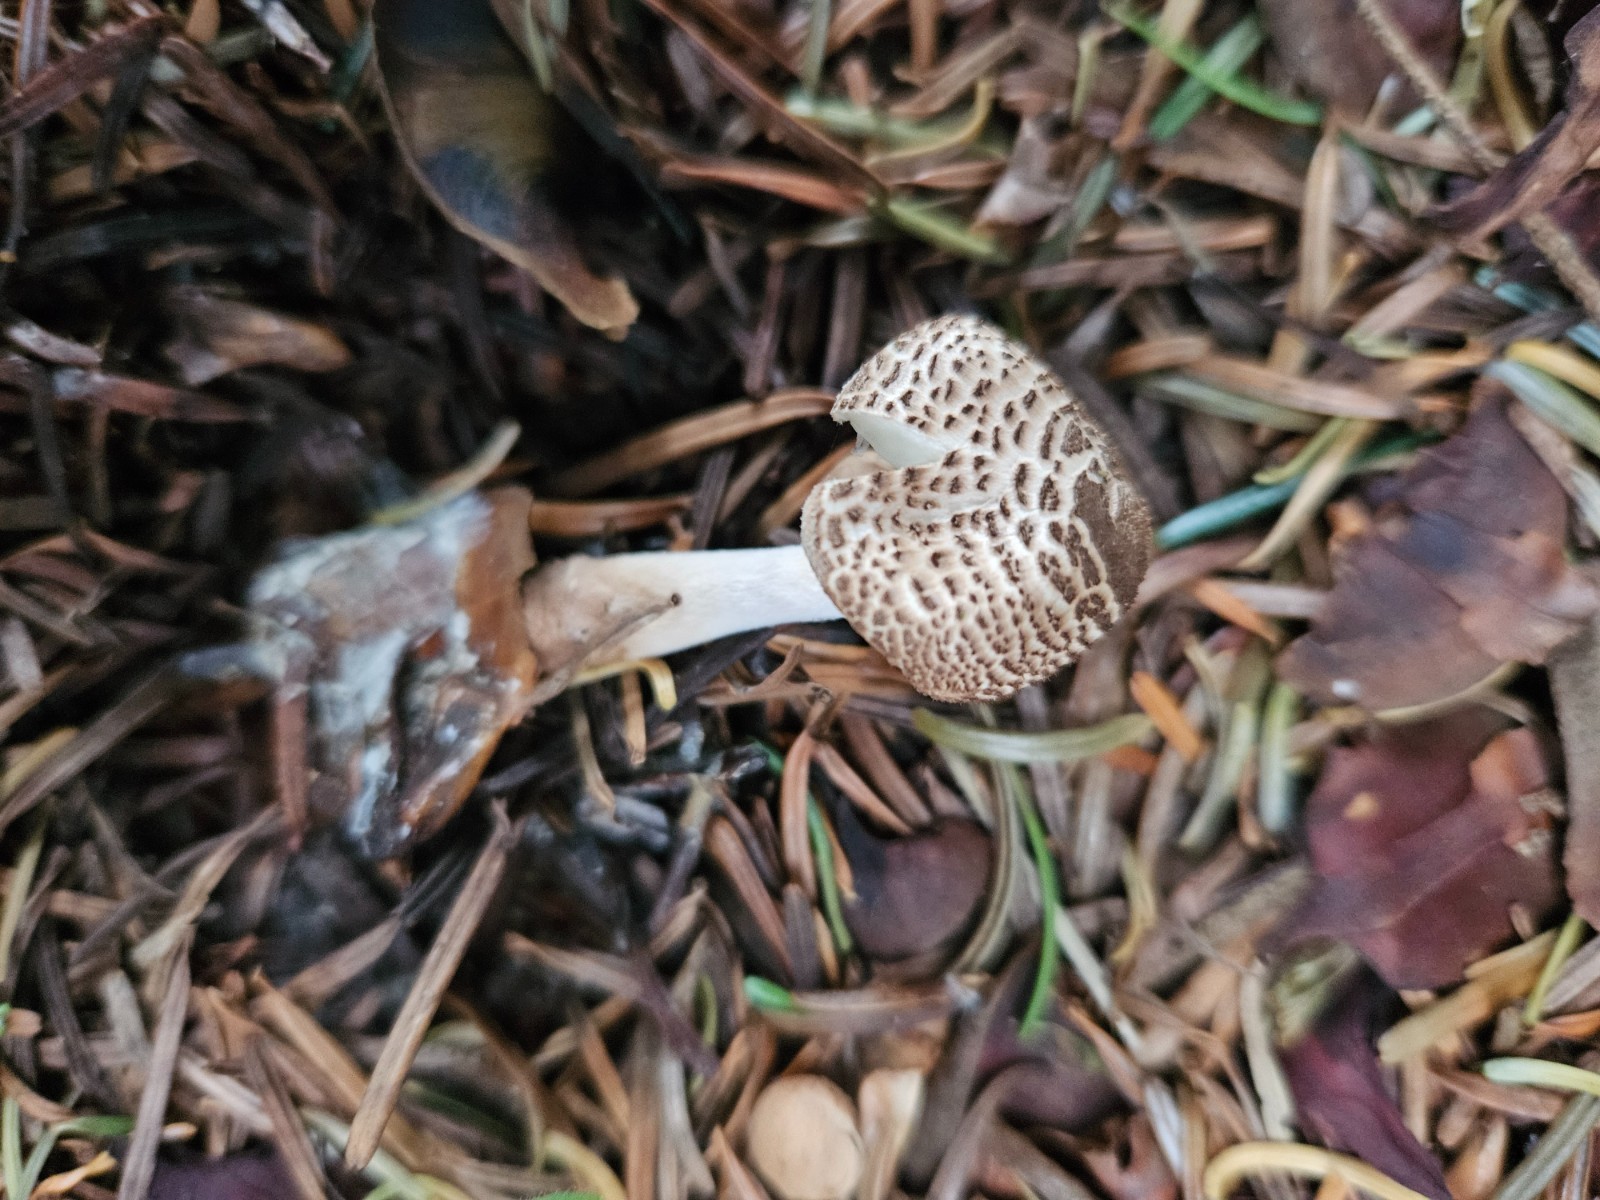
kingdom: Fungi
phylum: Basidiomycota
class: Agaricomycetes
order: Agaricales
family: Agaricaceae
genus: Lepiota
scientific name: Lepiota felina
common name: sortskællet parasolhat
